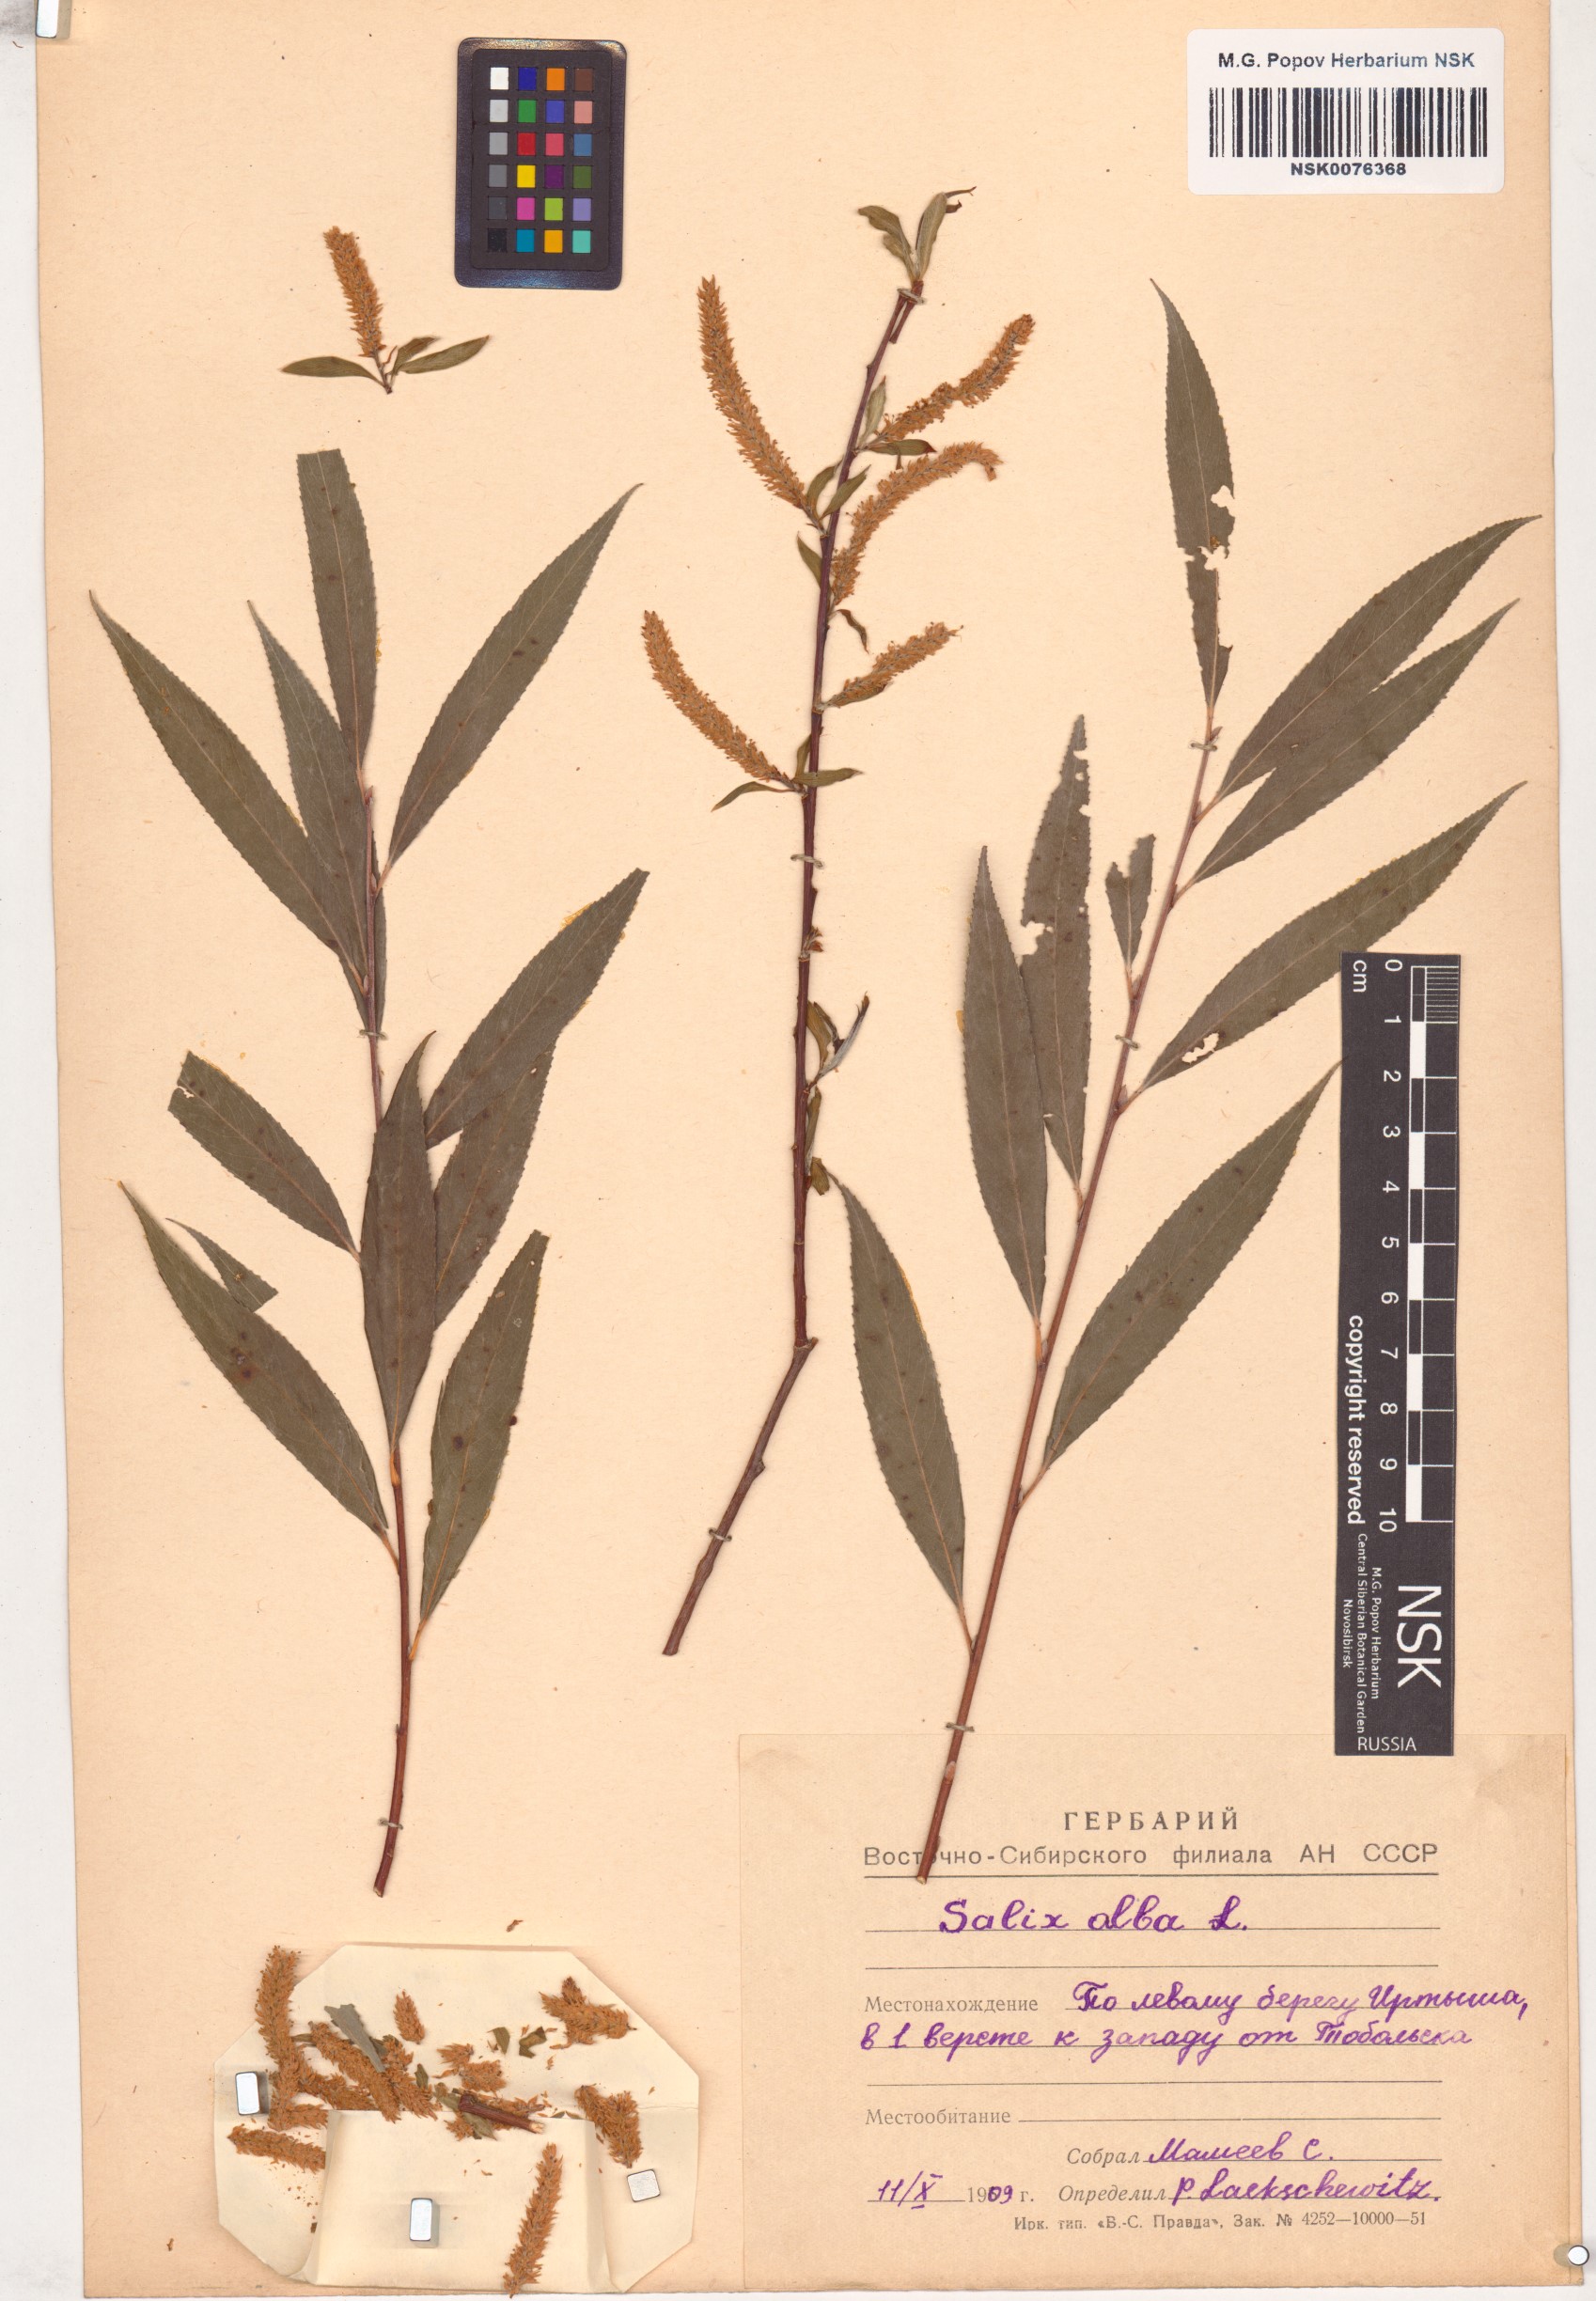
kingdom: Plantae
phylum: Tracheophyta
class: Magnoliopsida
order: Malpighiales
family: Salicaceae
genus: Salix
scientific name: Salix alba
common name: White willow
